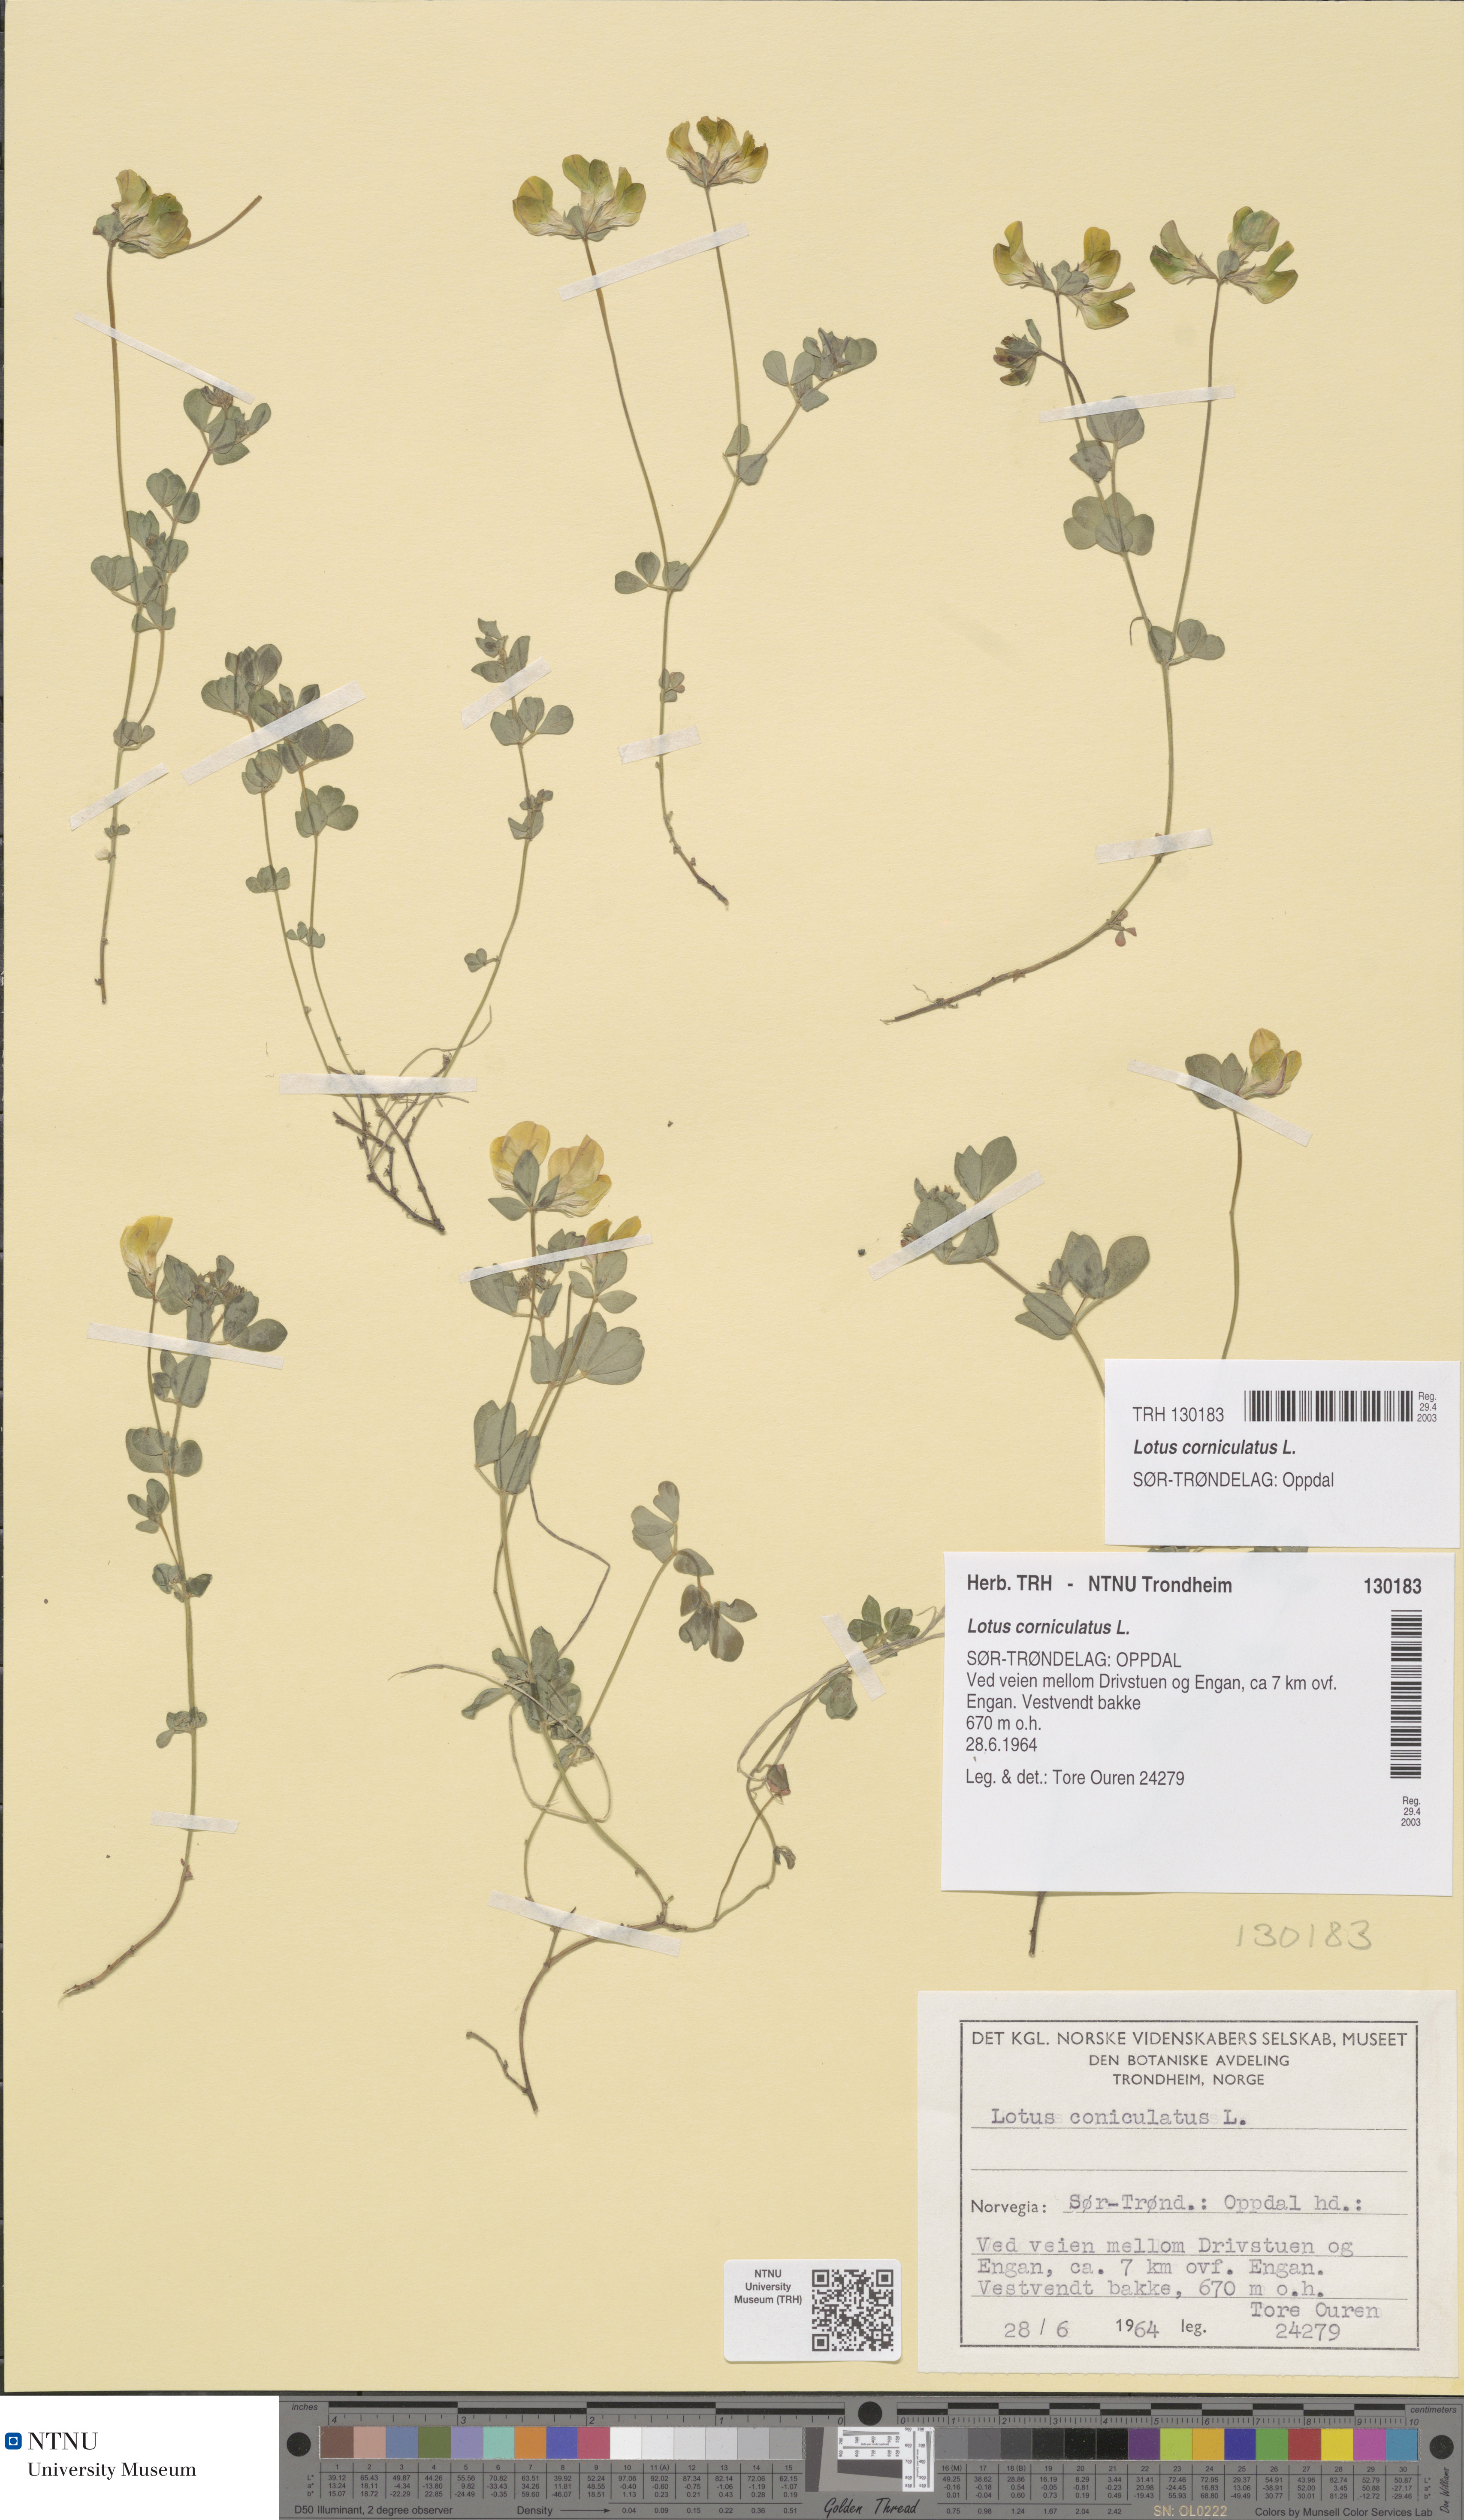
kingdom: Plantae
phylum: Tracheophyta
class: Magnoliopsida
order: Fabales
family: Fabaceae
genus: Lotus
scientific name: Lotus corniculatus
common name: Common bird's-foot-trefoil
